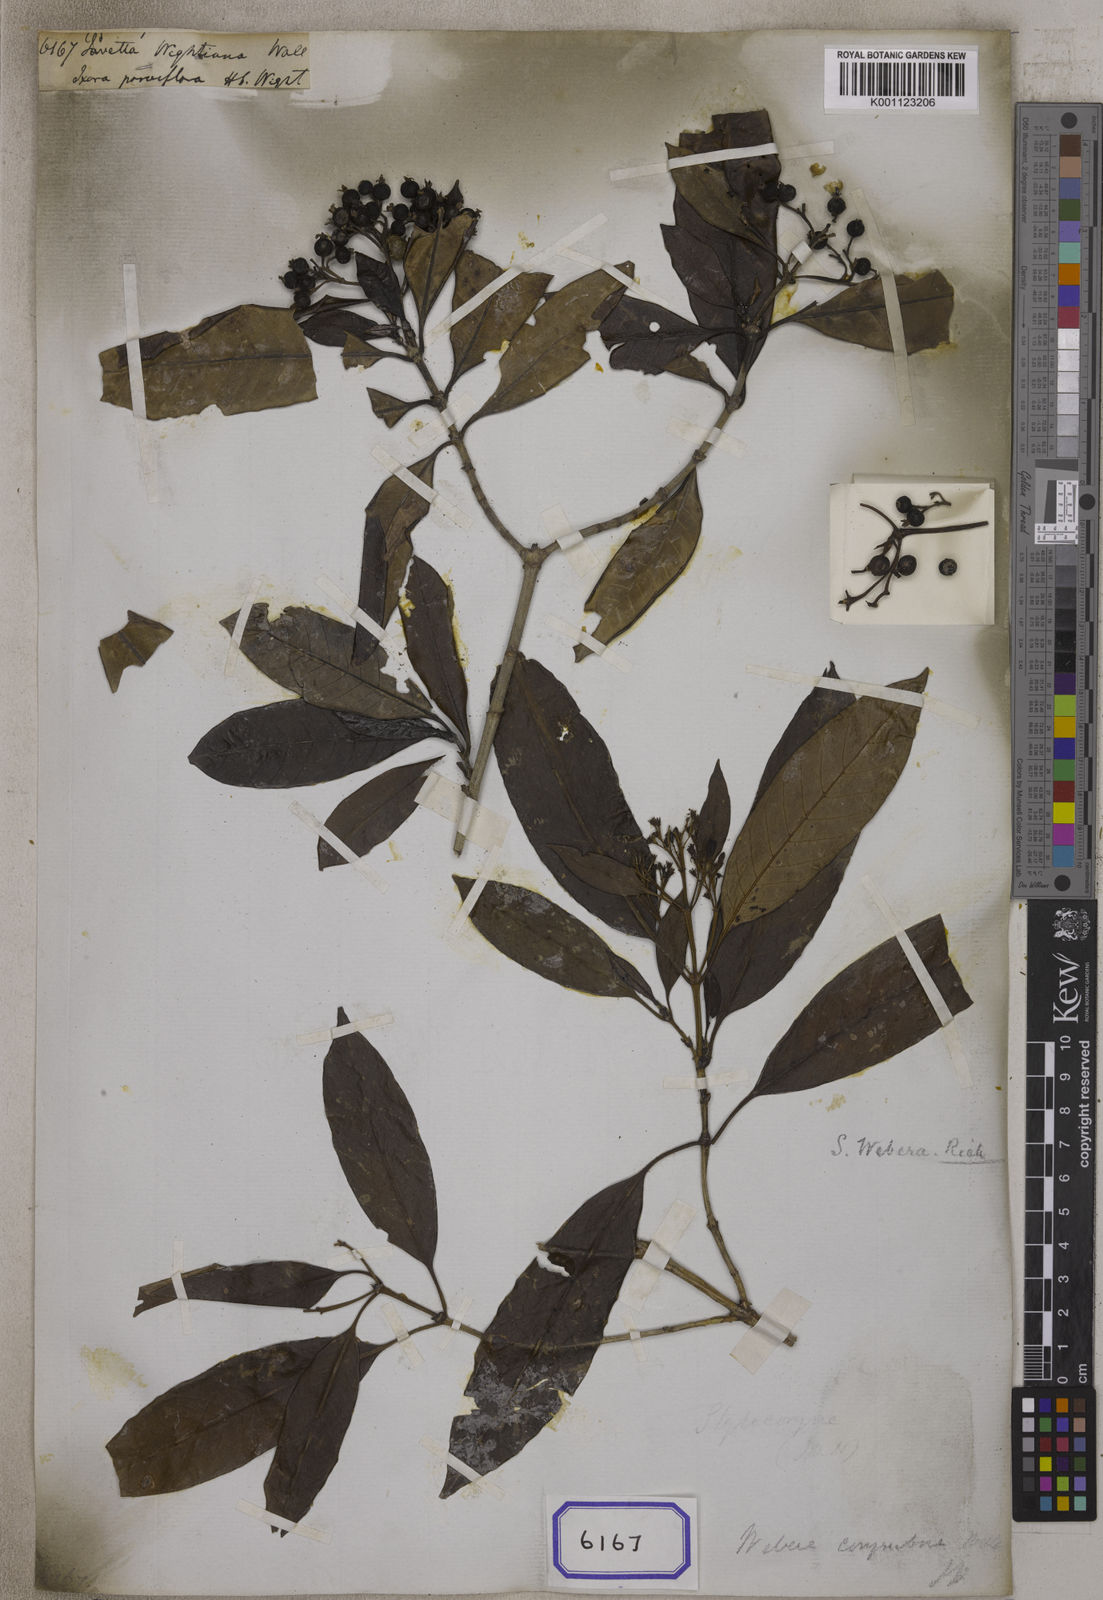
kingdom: Plantae
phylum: Tracheophyta
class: Magnoliopsida
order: Gentianales
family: Rubiaceae
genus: Tarenna
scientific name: Tarenna asiatica
